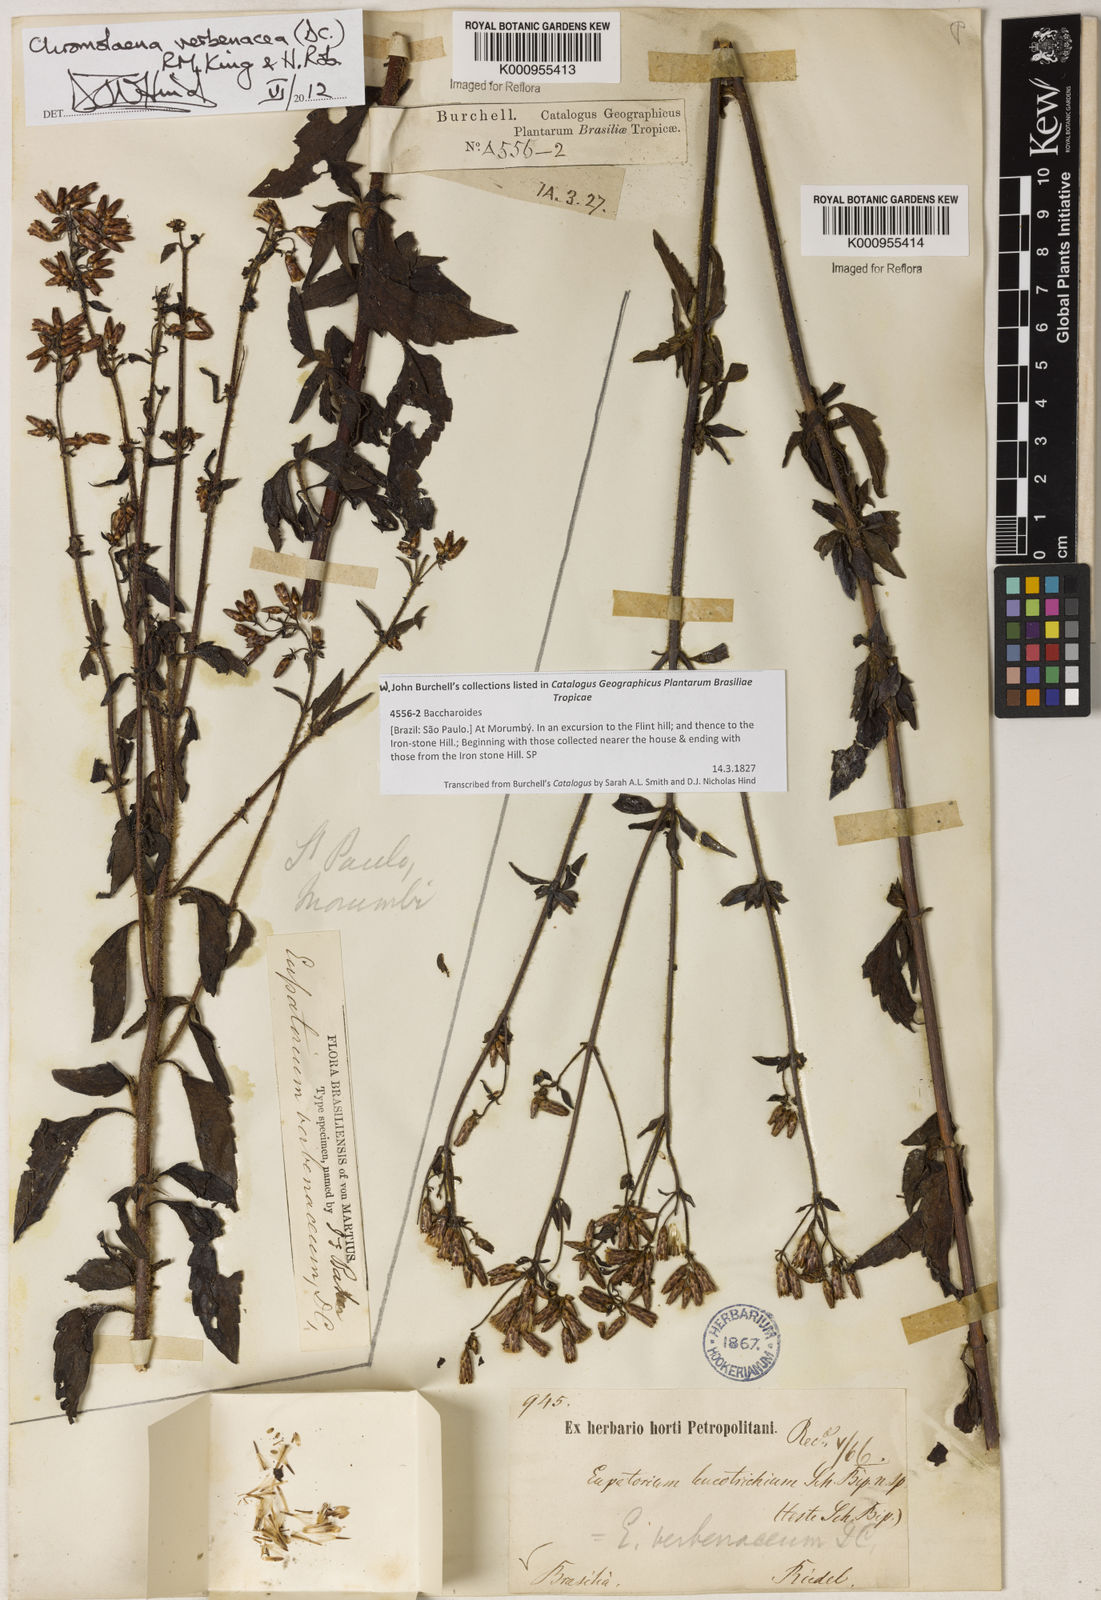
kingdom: Plantae
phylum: Tracheophyta
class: Magnoliopsida
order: Asterales
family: Asteraceae
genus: Chromolaena
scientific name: Chromolaena verbenacea
